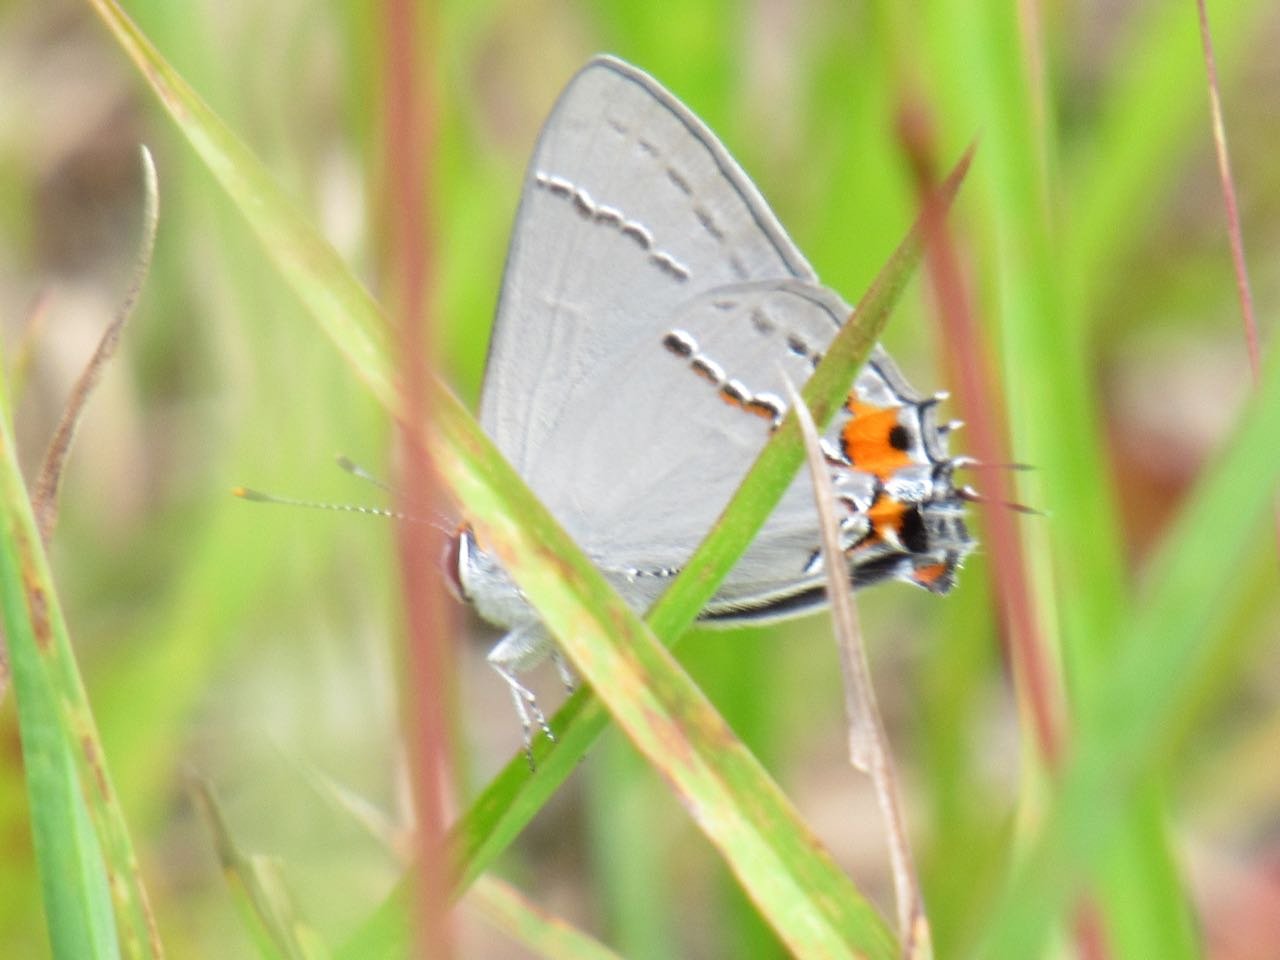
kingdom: Animalia
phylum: Arthropoda
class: Insecta
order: Lepidoptera
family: Lycaenidae
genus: Strymon
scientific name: Strymon melinus
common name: Gray Hairstreak
